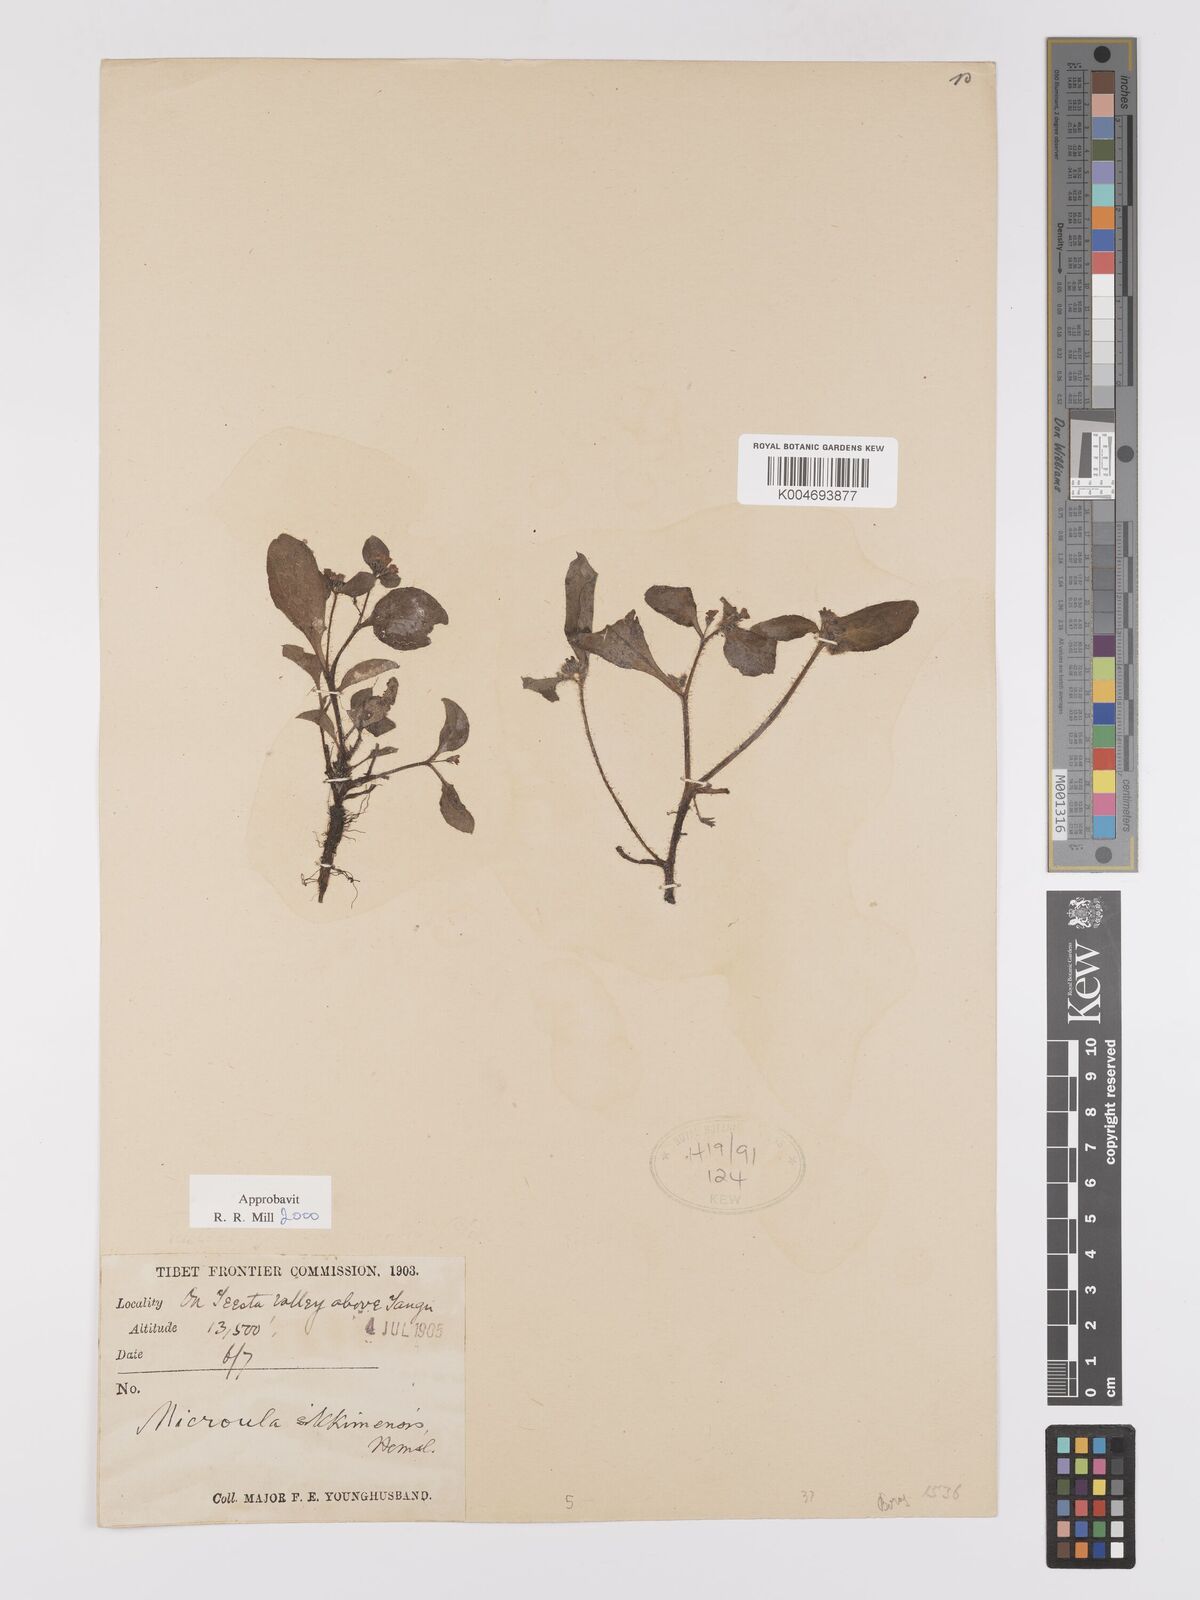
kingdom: Plantae
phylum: Tracheophyta
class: Magnoliopsida
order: Boraginales
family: Boraginaceae
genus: Microula
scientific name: Microula sikkimensis
